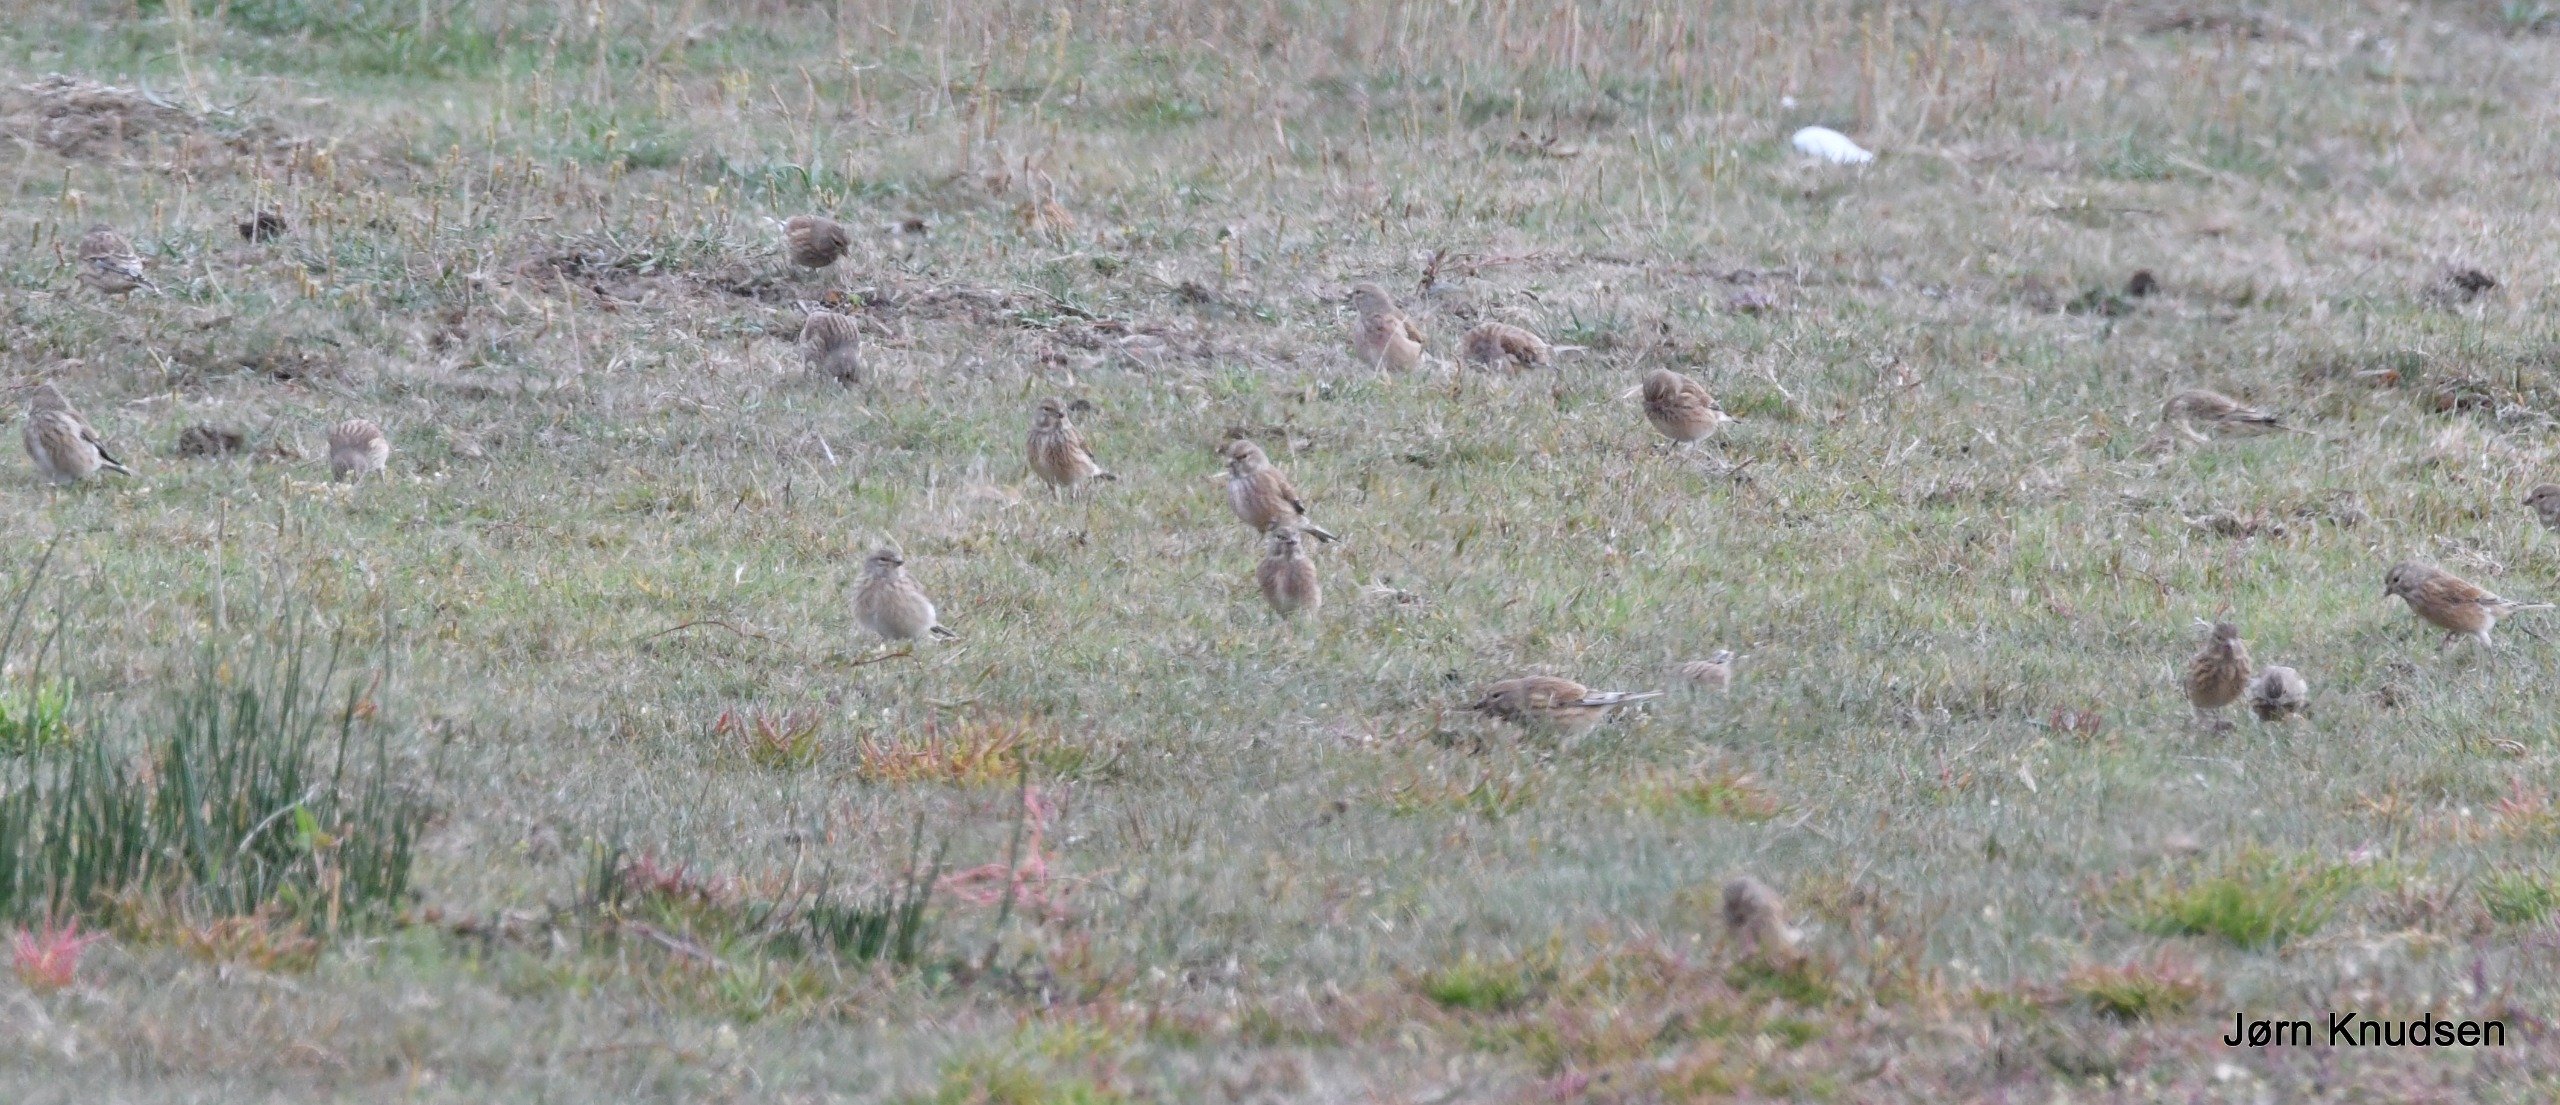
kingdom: Animalia
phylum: Chordata
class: Aves
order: Passeriformes
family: Fringillidae
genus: Linaria
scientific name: Linaria cannabina
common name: Tornirisk
